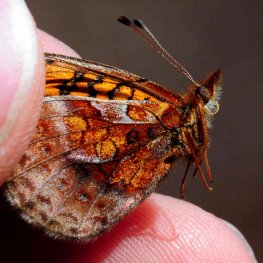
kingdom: Animalia
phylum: Arthropoda
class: Insecta
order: Lepidoptera
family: Nymphalidae
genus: Clossiana
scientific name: Clossiana toddi
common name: Meadow Fritillary
